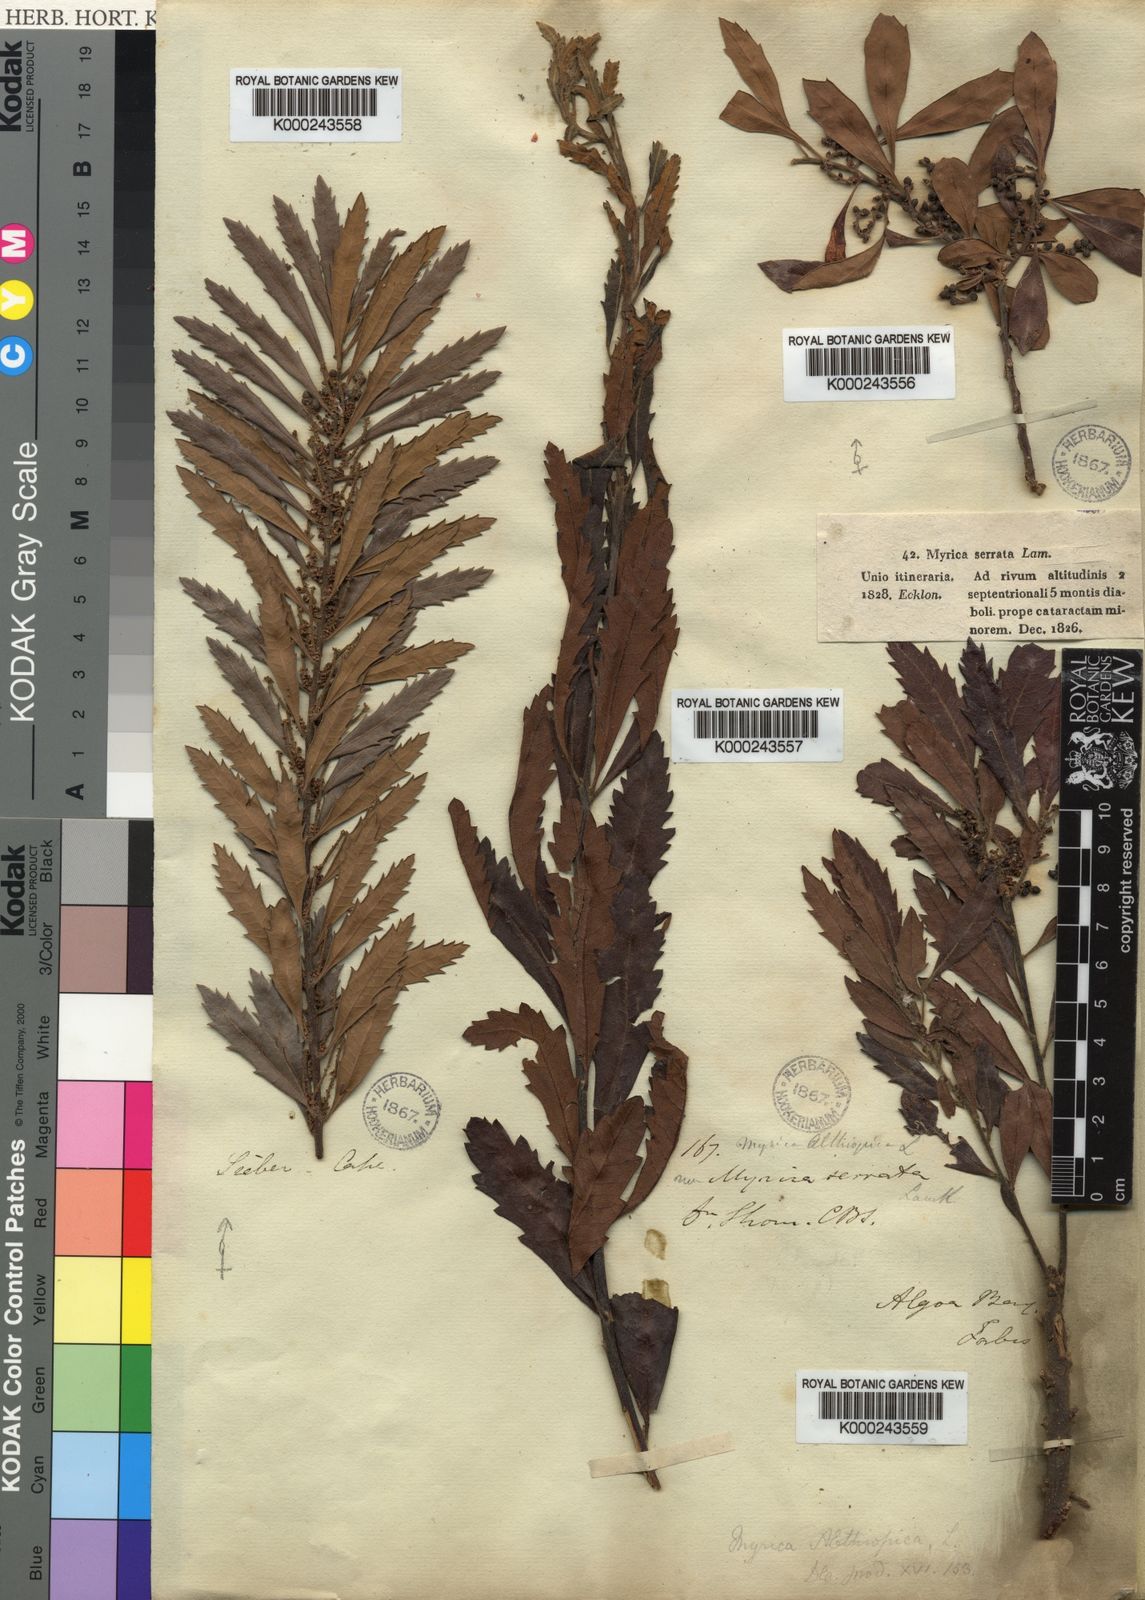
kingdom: Plantae
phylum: Tracheophyta
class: Magnoliopsida
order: Fagales
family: Myricaceae
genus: Morella
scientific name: Morella serrata
